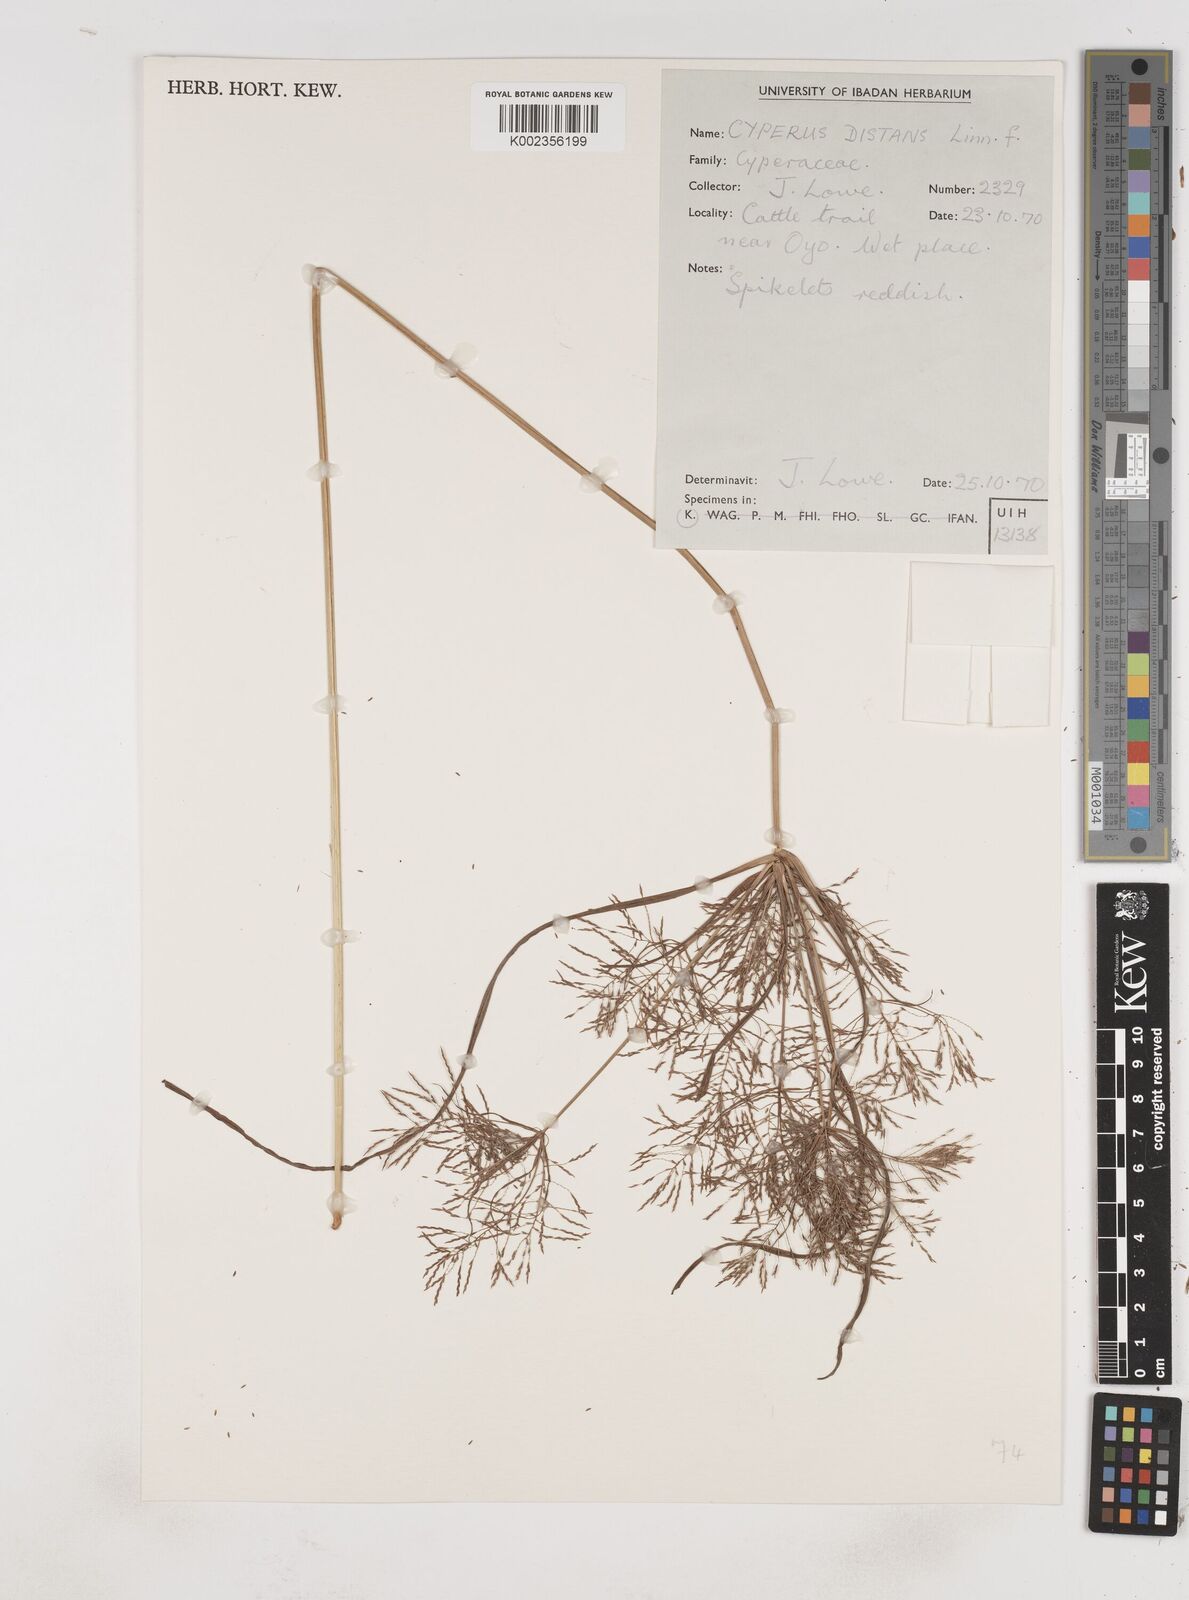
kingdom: Plantae
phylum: Tracheophyta
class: Liliopsida
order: Poales
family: Cyperaceae
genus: Cyperus
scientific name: Cyperus distans
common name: Slender cyperus
